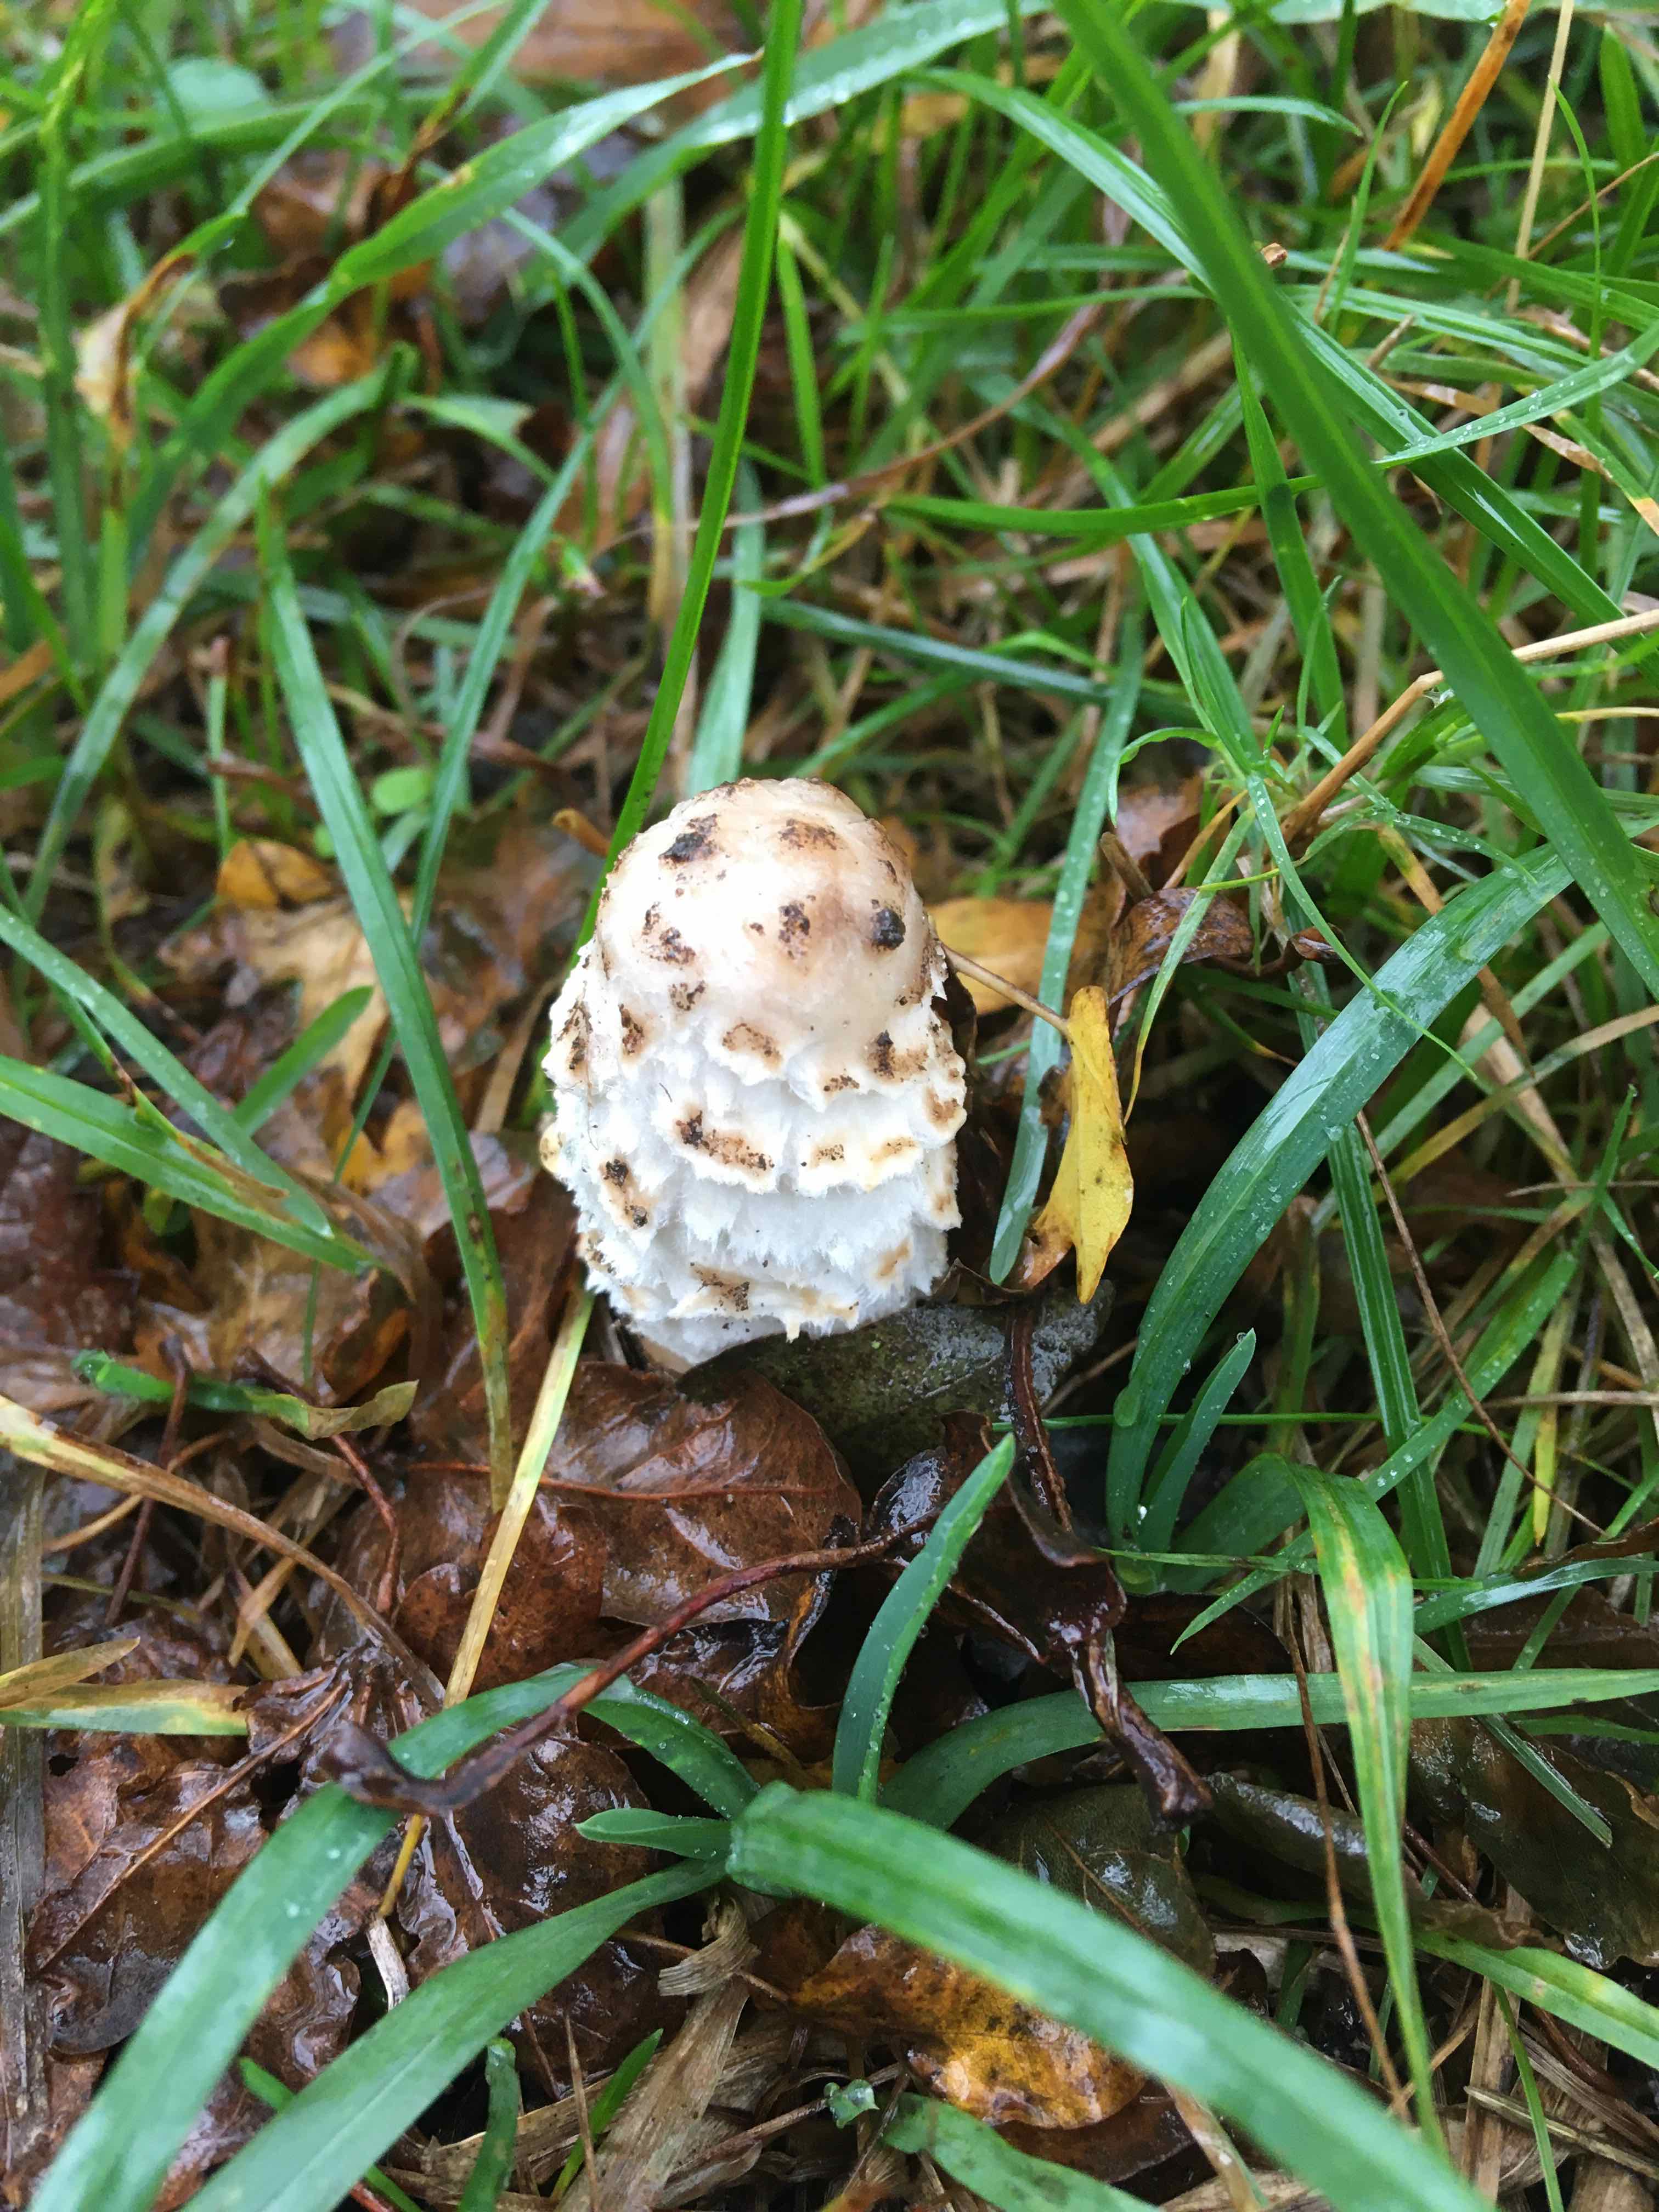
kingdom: Fungi
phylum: Basidiomycota
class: Agaricomycetes
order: Agaricales
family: Agaricaceae
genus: Coprinus
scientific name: Coprinus comatus
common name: stor parykhat
